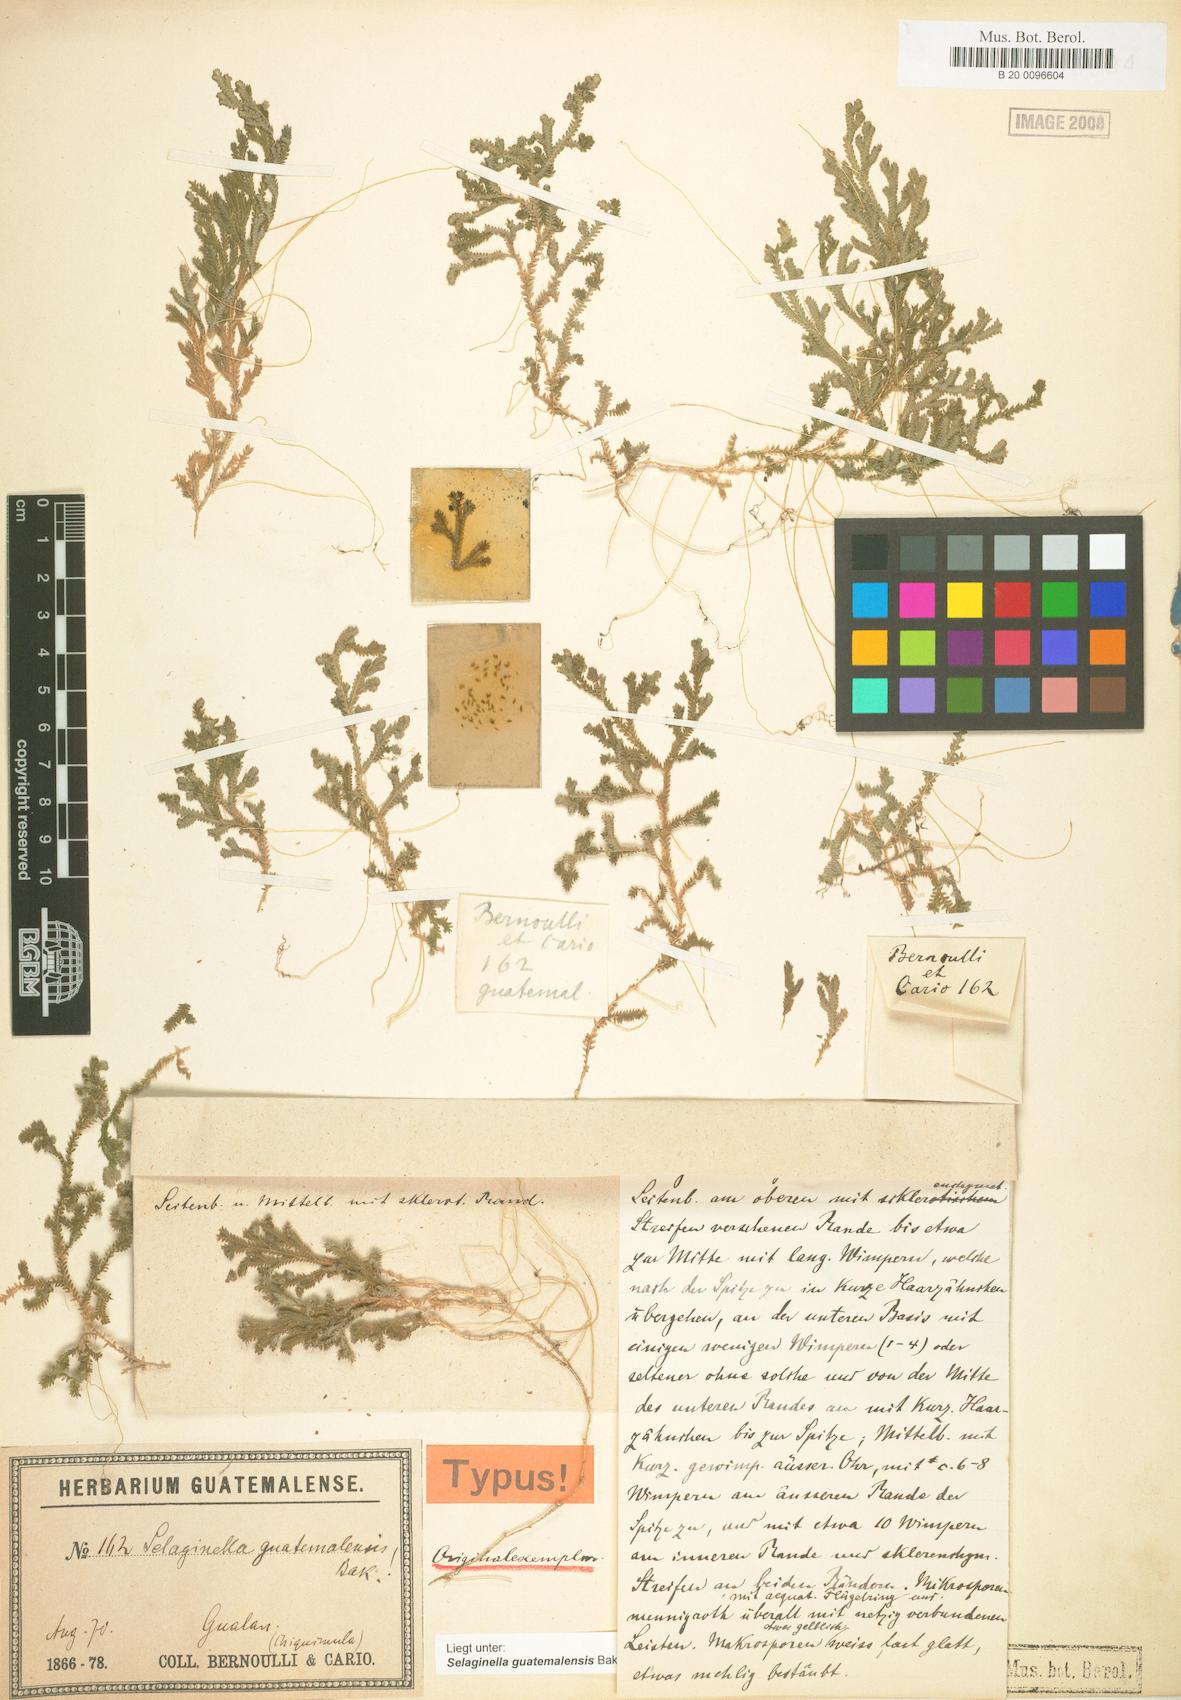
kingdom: Plantae
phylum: Tracheophyta
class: Lycopodiopsida
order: Selaginellales
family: Selaginellaceae
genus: Selaginella
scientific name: Selaginella guatemalensis
